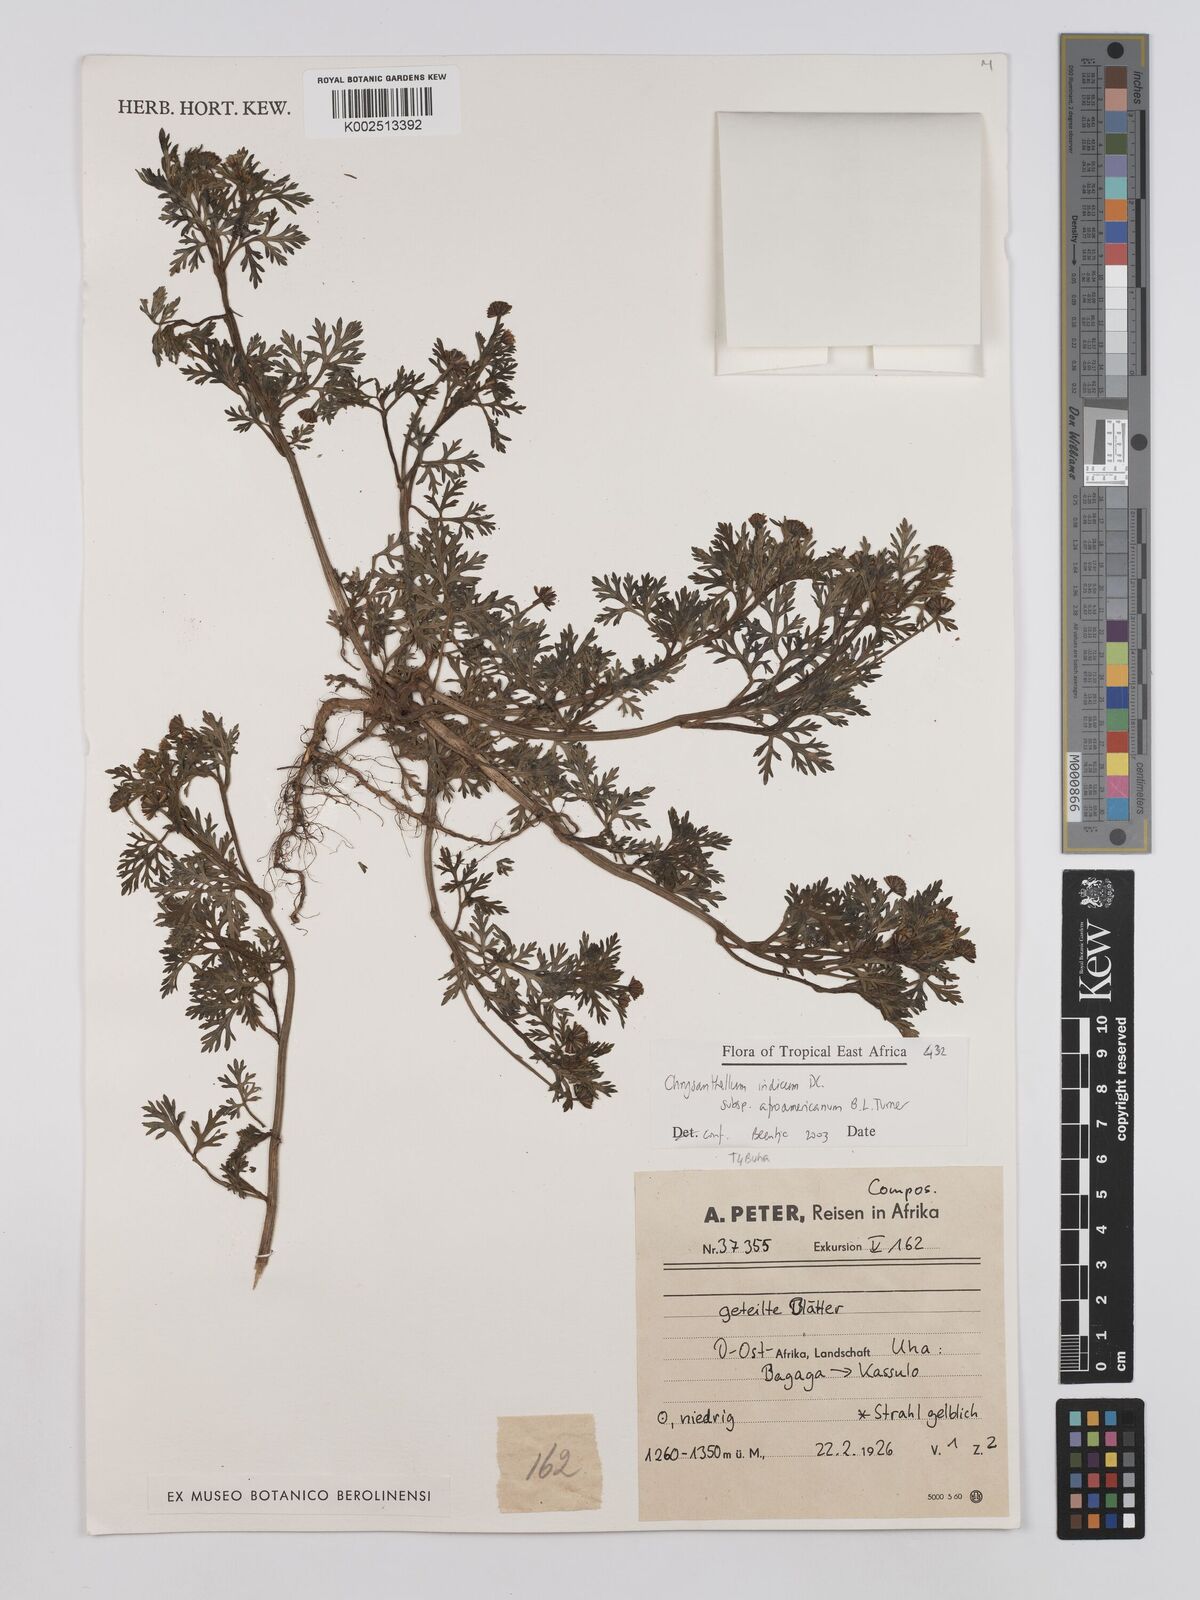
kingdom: Plantae
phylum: Tracheophyta
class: Magnoliopsida
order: Asterales
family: Asteraceae
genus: Chrysanthellum
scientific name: Chrysanthellum indicum
